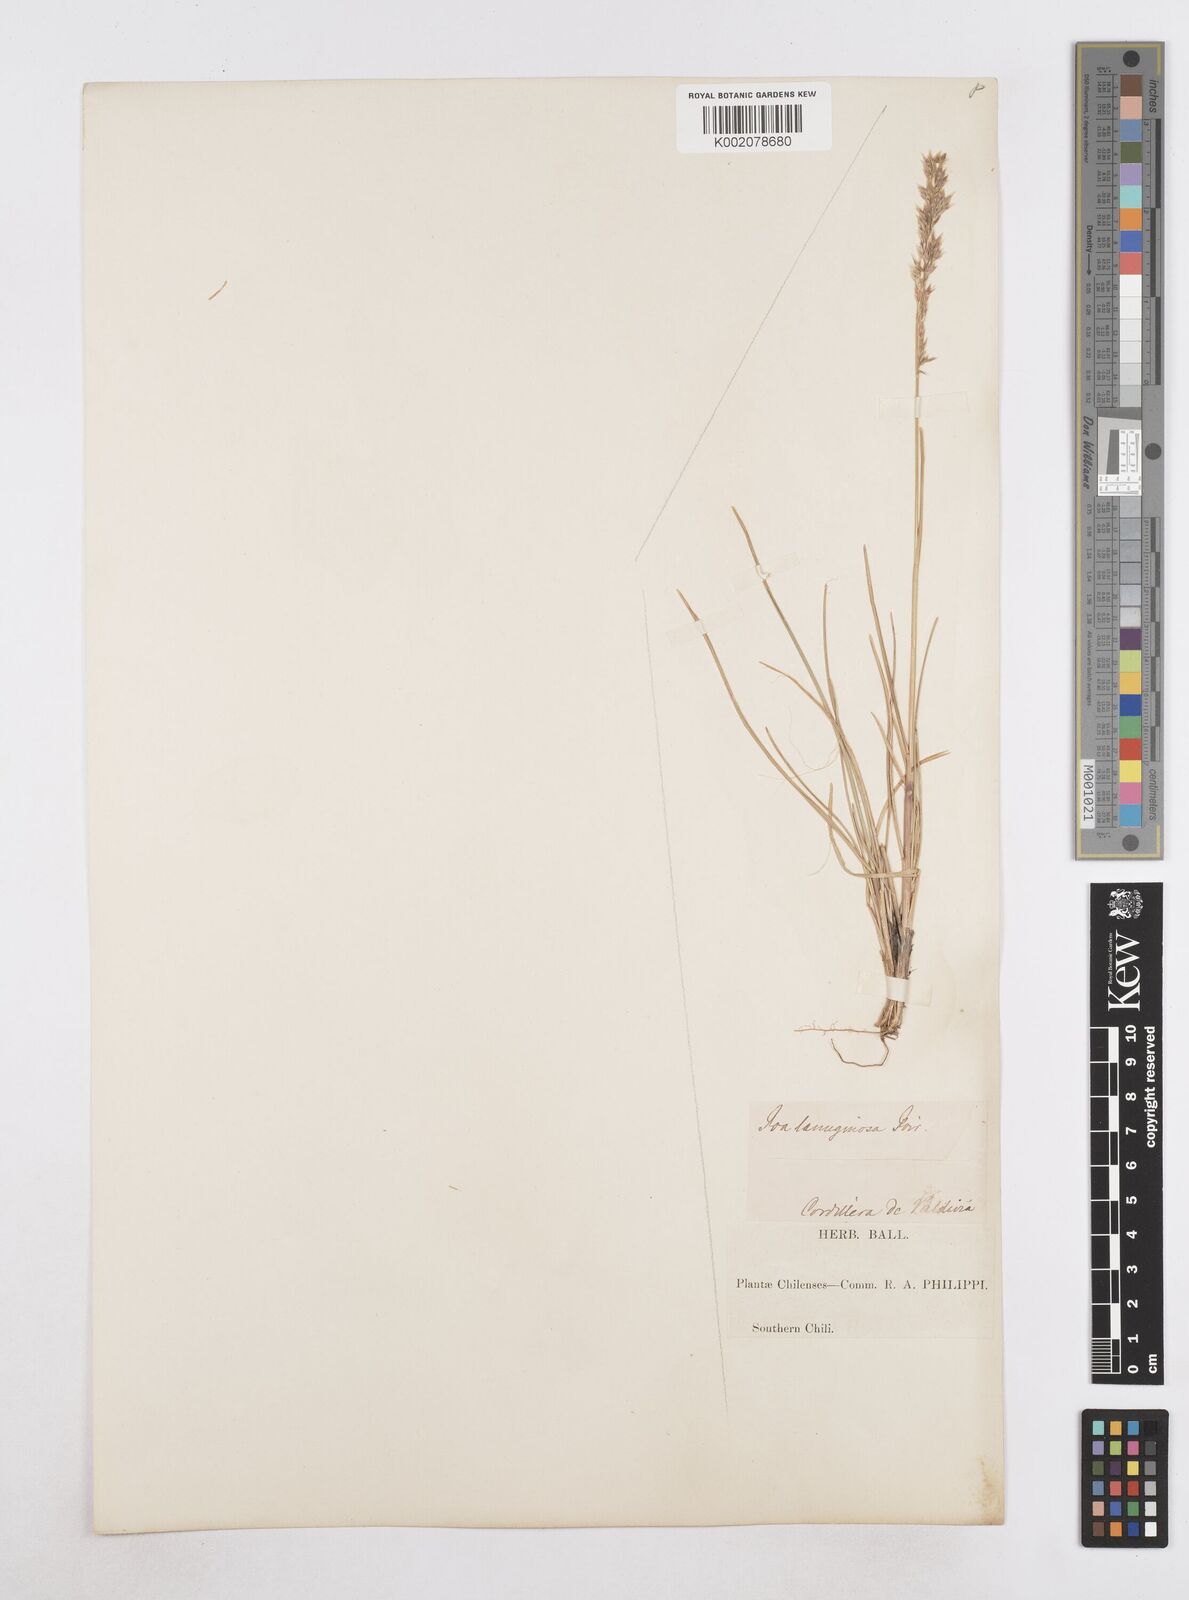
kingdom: Plantae
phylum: Tracheophyta
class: Liliopsida
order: Poales
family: Poaceae
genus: Poa
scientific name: Poa spiciformis
